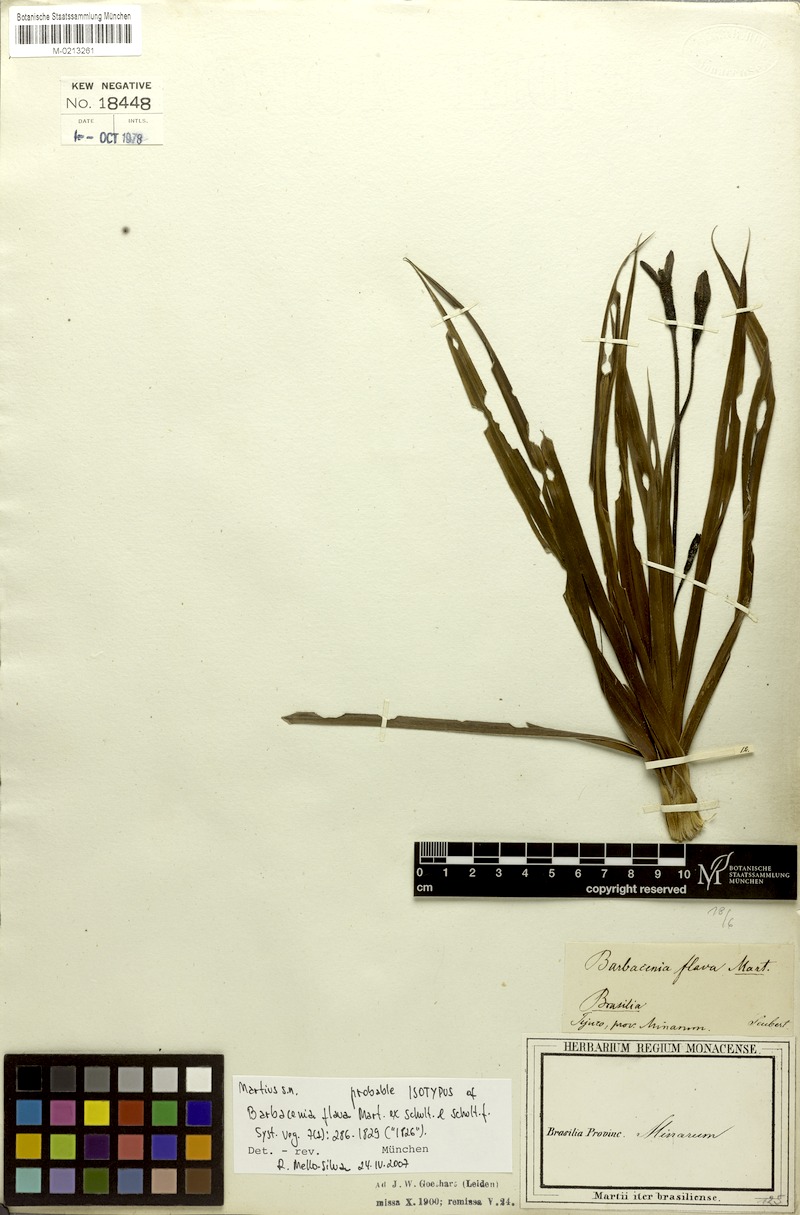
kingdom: Plantae
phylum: Tracheophyta
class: Liliopsida
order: Pandanales
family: Velloziaceae
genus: Barbacenia
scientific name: Barbacenia flava
